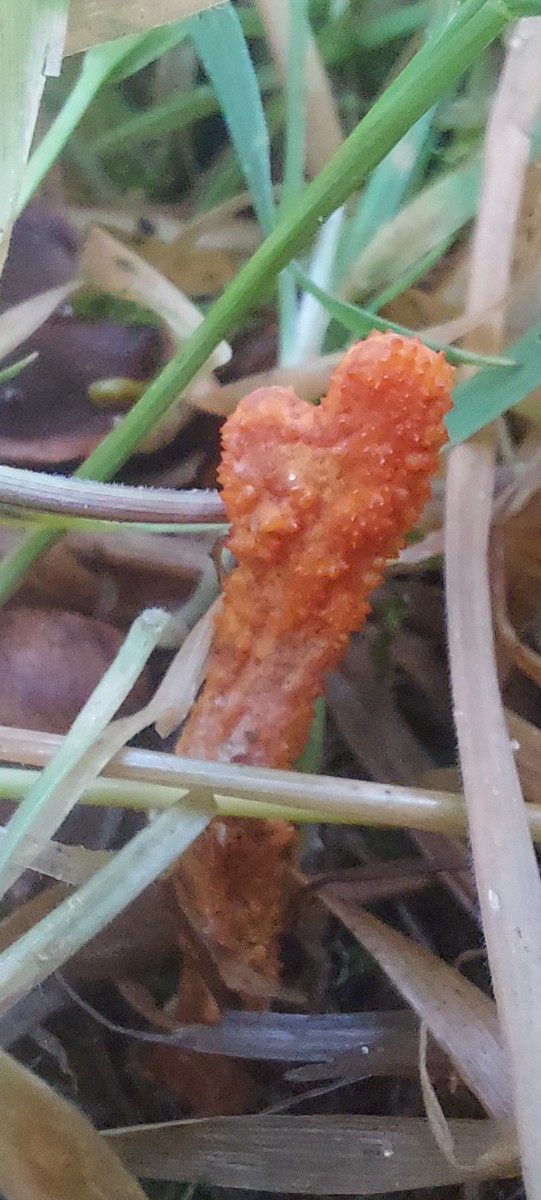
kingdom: Fungi
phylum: Ascomycota
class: Sordariomycetes
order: Hypocreales
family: Cordycipitaceae
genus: Cordyceps
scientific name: Cordyceps militaris
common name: puppe-snyltekølle
